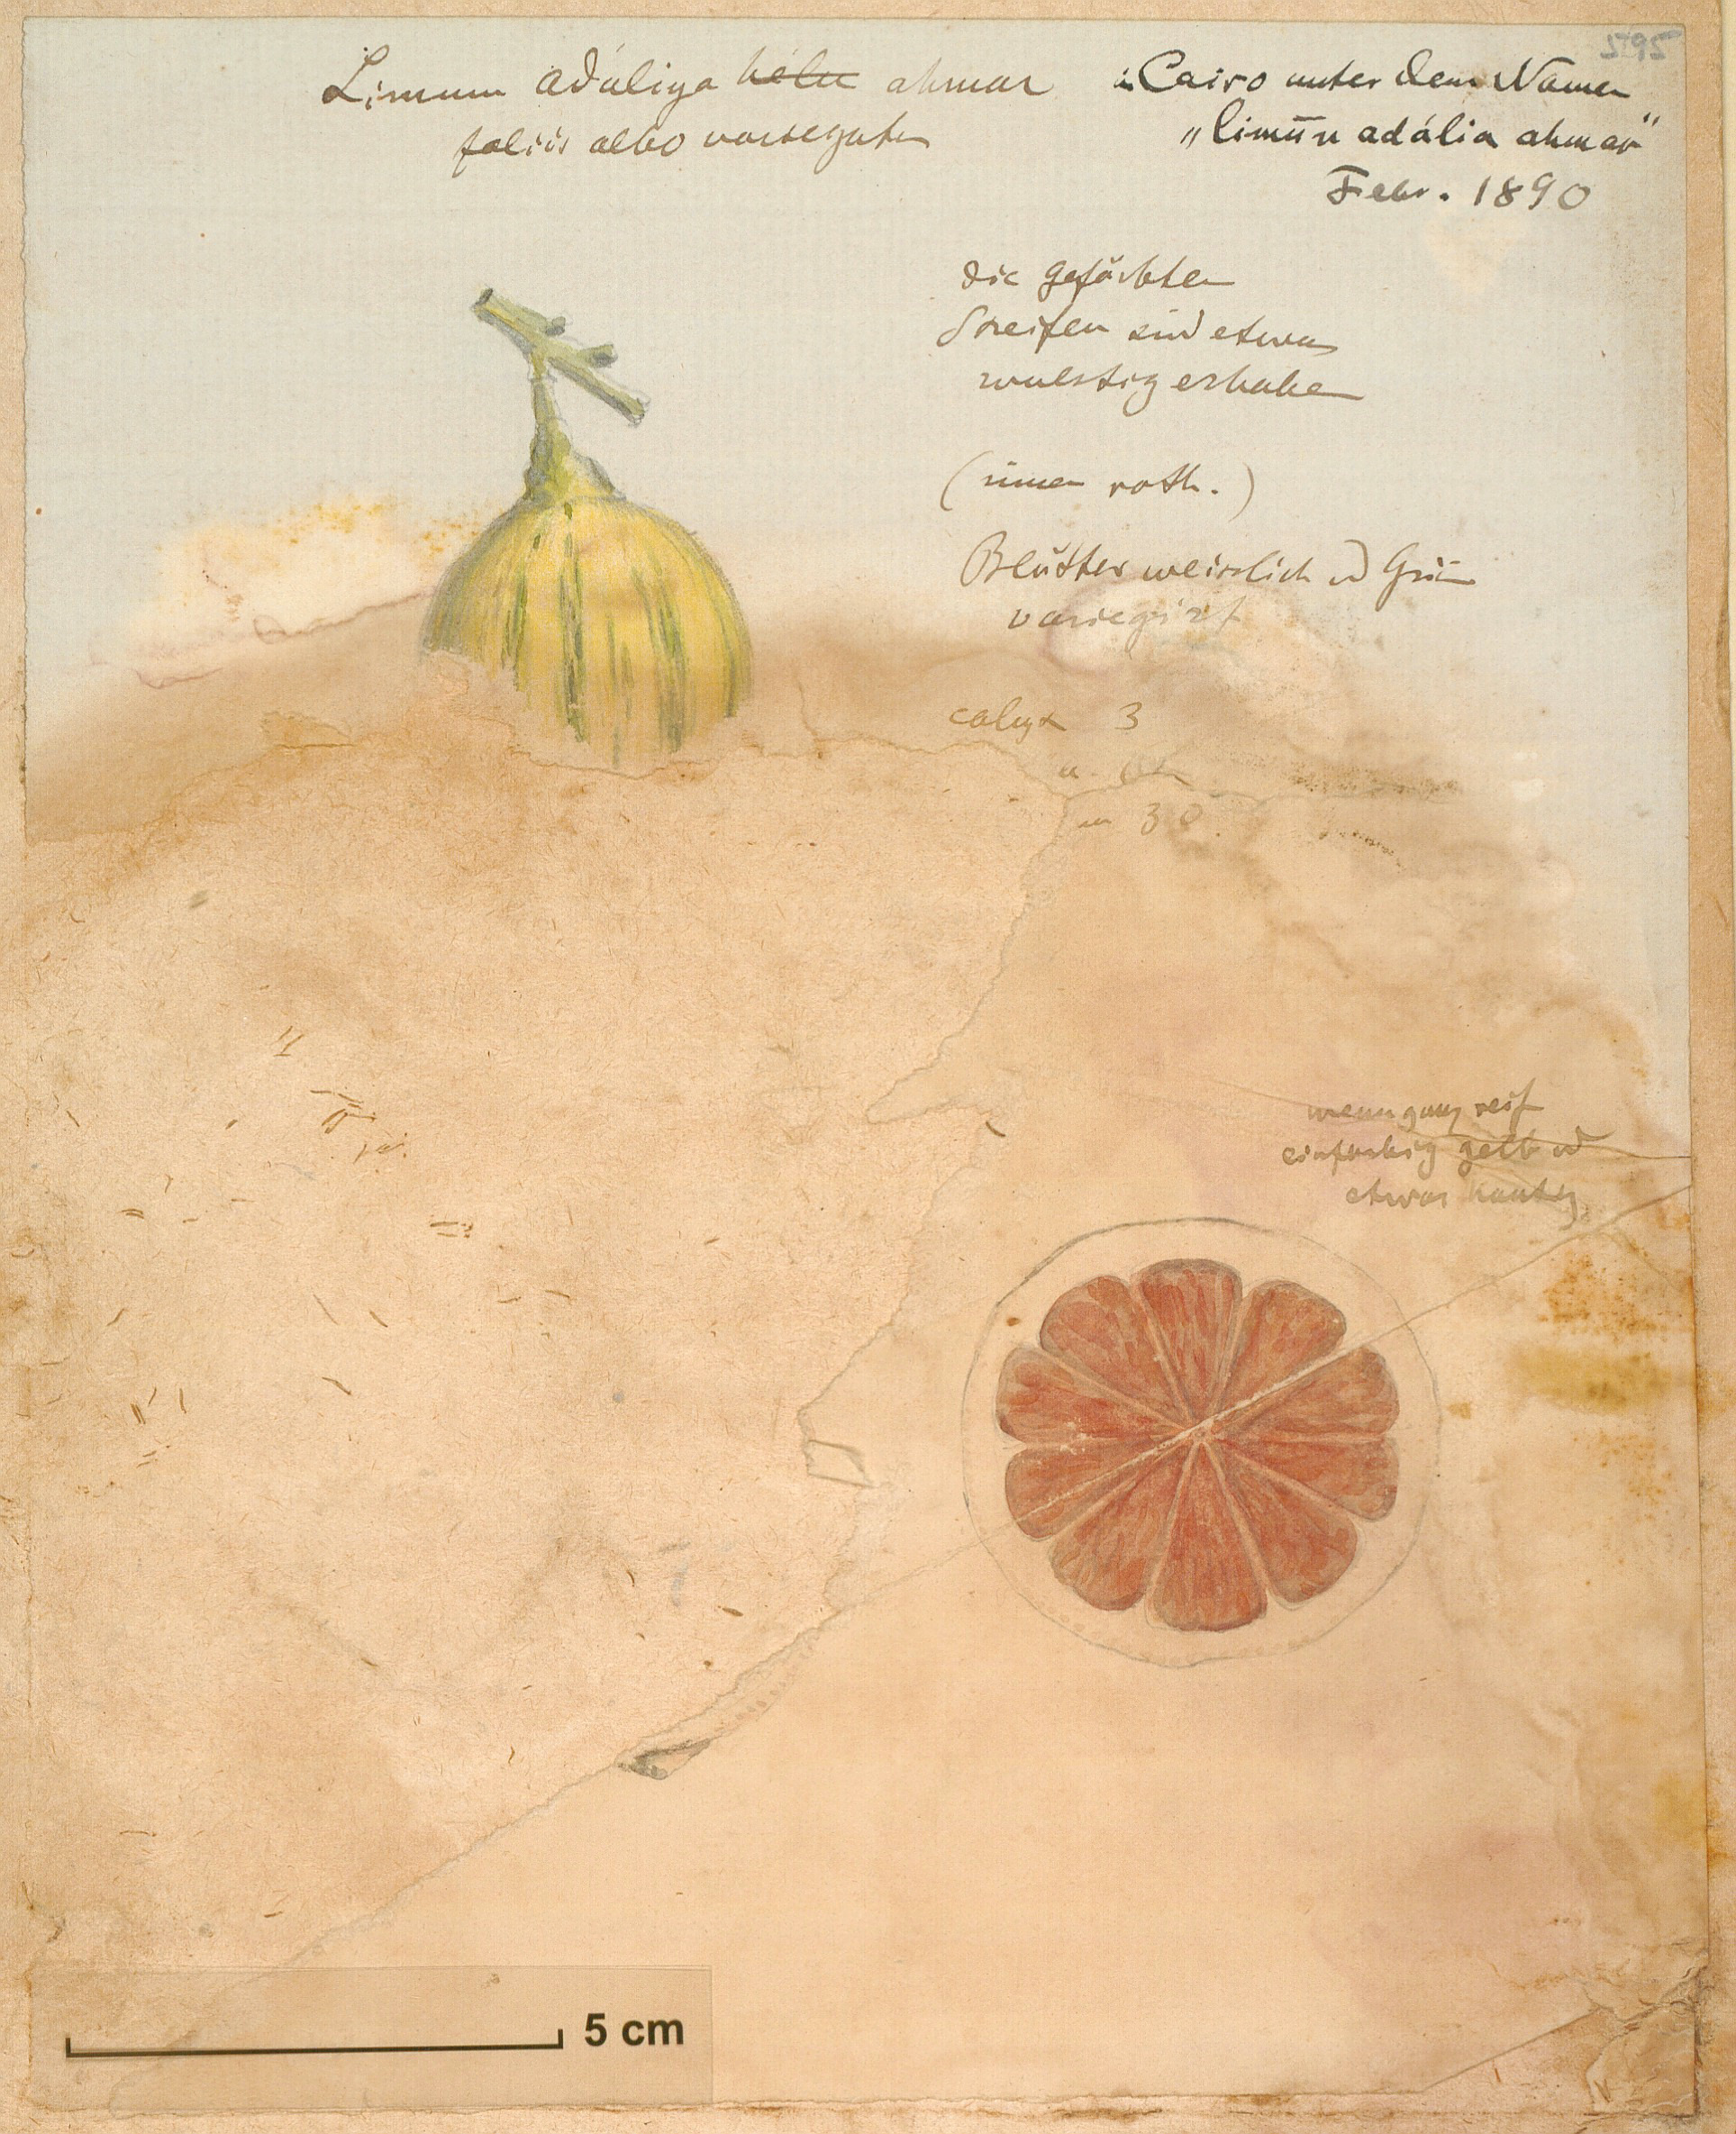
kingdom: Plantae
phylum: Tracheophyta
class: Magnoliopsida
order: Sapindales
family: Rutaceae
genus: Citrus
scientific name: Citrus limon
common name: Lemon
